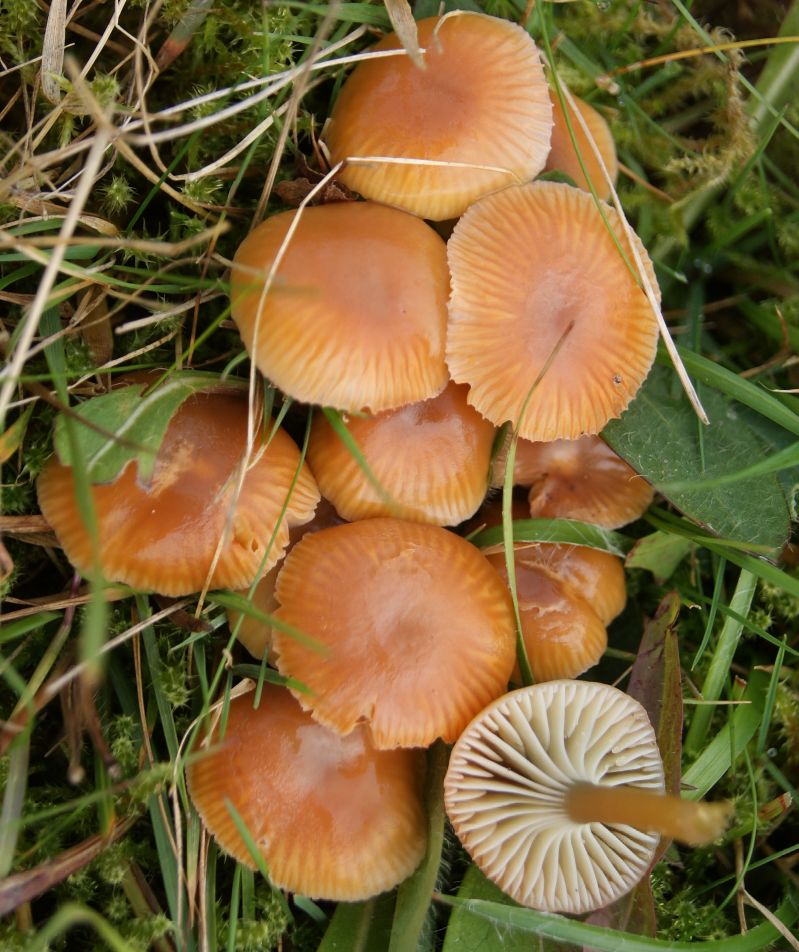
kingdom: Fungi
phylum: Basidiomycota
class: Agaricomycetes
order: Agaricales
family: Hygrophoraceae
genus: Gliophorus
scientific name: Gliophorus laetus
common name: brusk-vokshat
